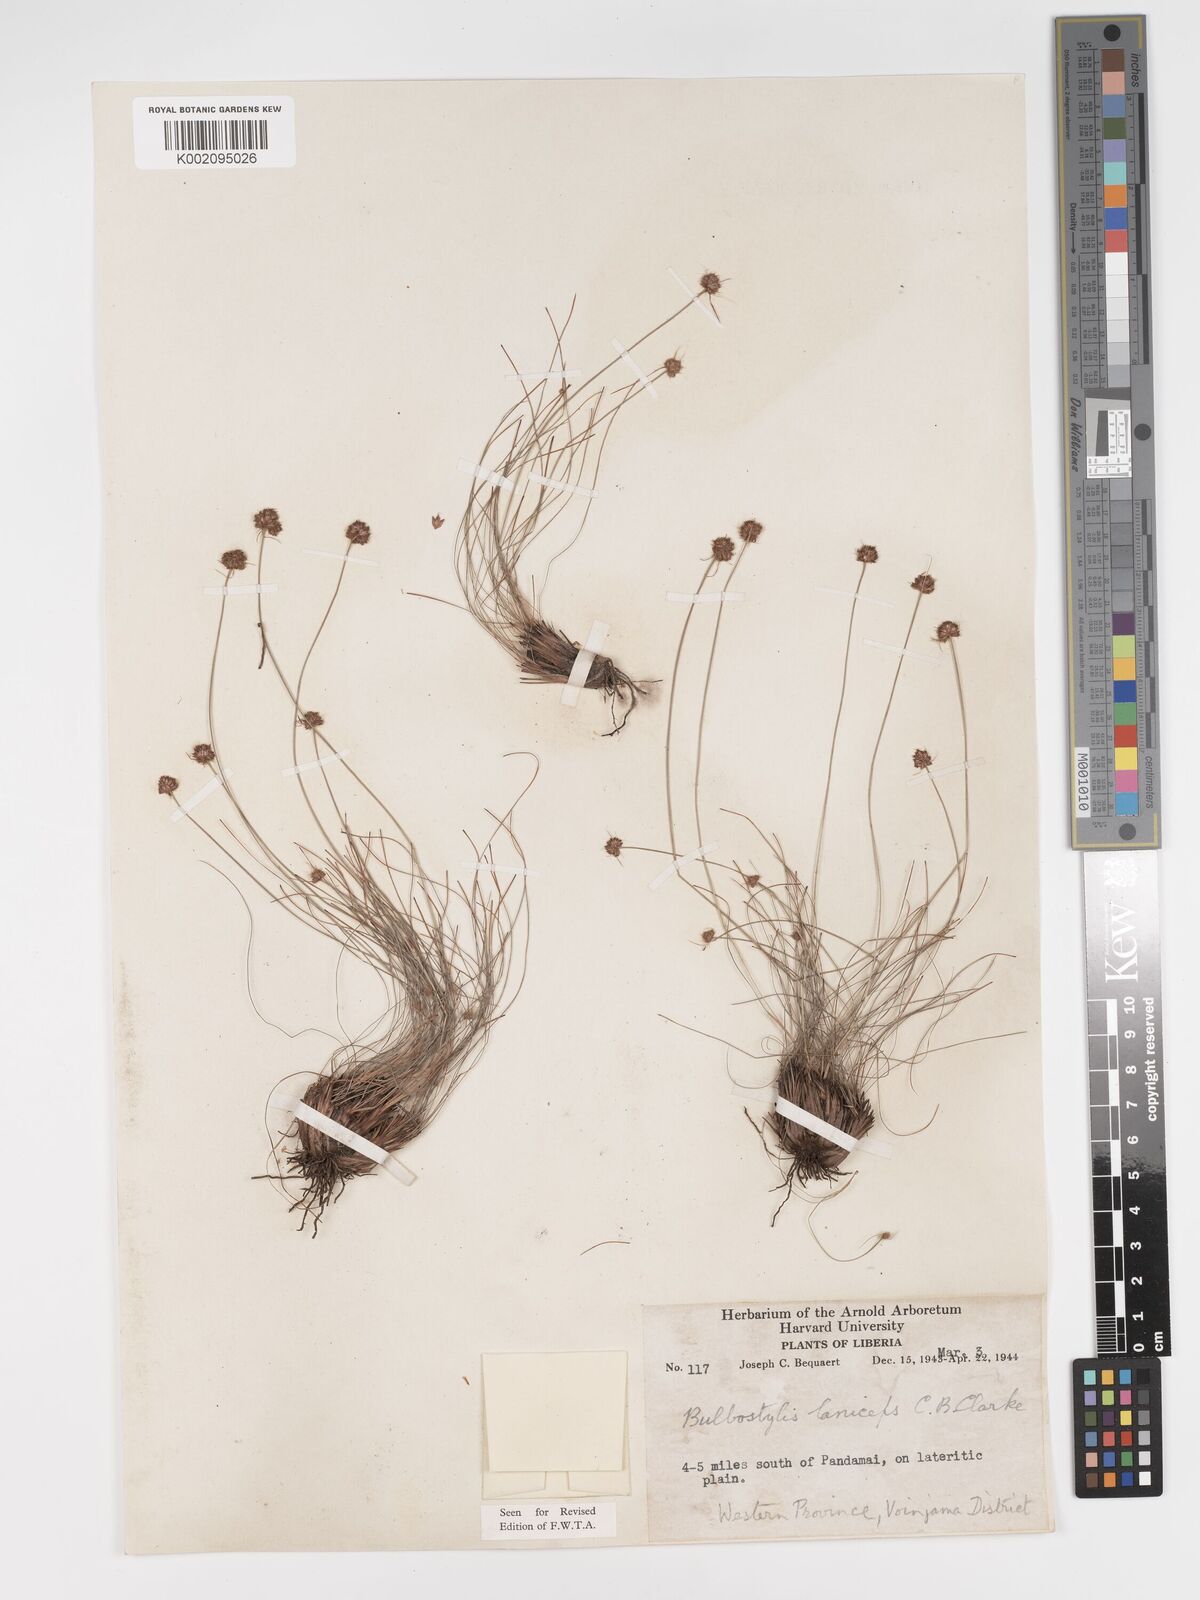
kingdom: Plantae
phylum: Tracheophyta
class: Liliopsida
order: Poales
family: Cyperaceae
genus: Bulbostylis
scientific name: Bulbostylis laniceps
